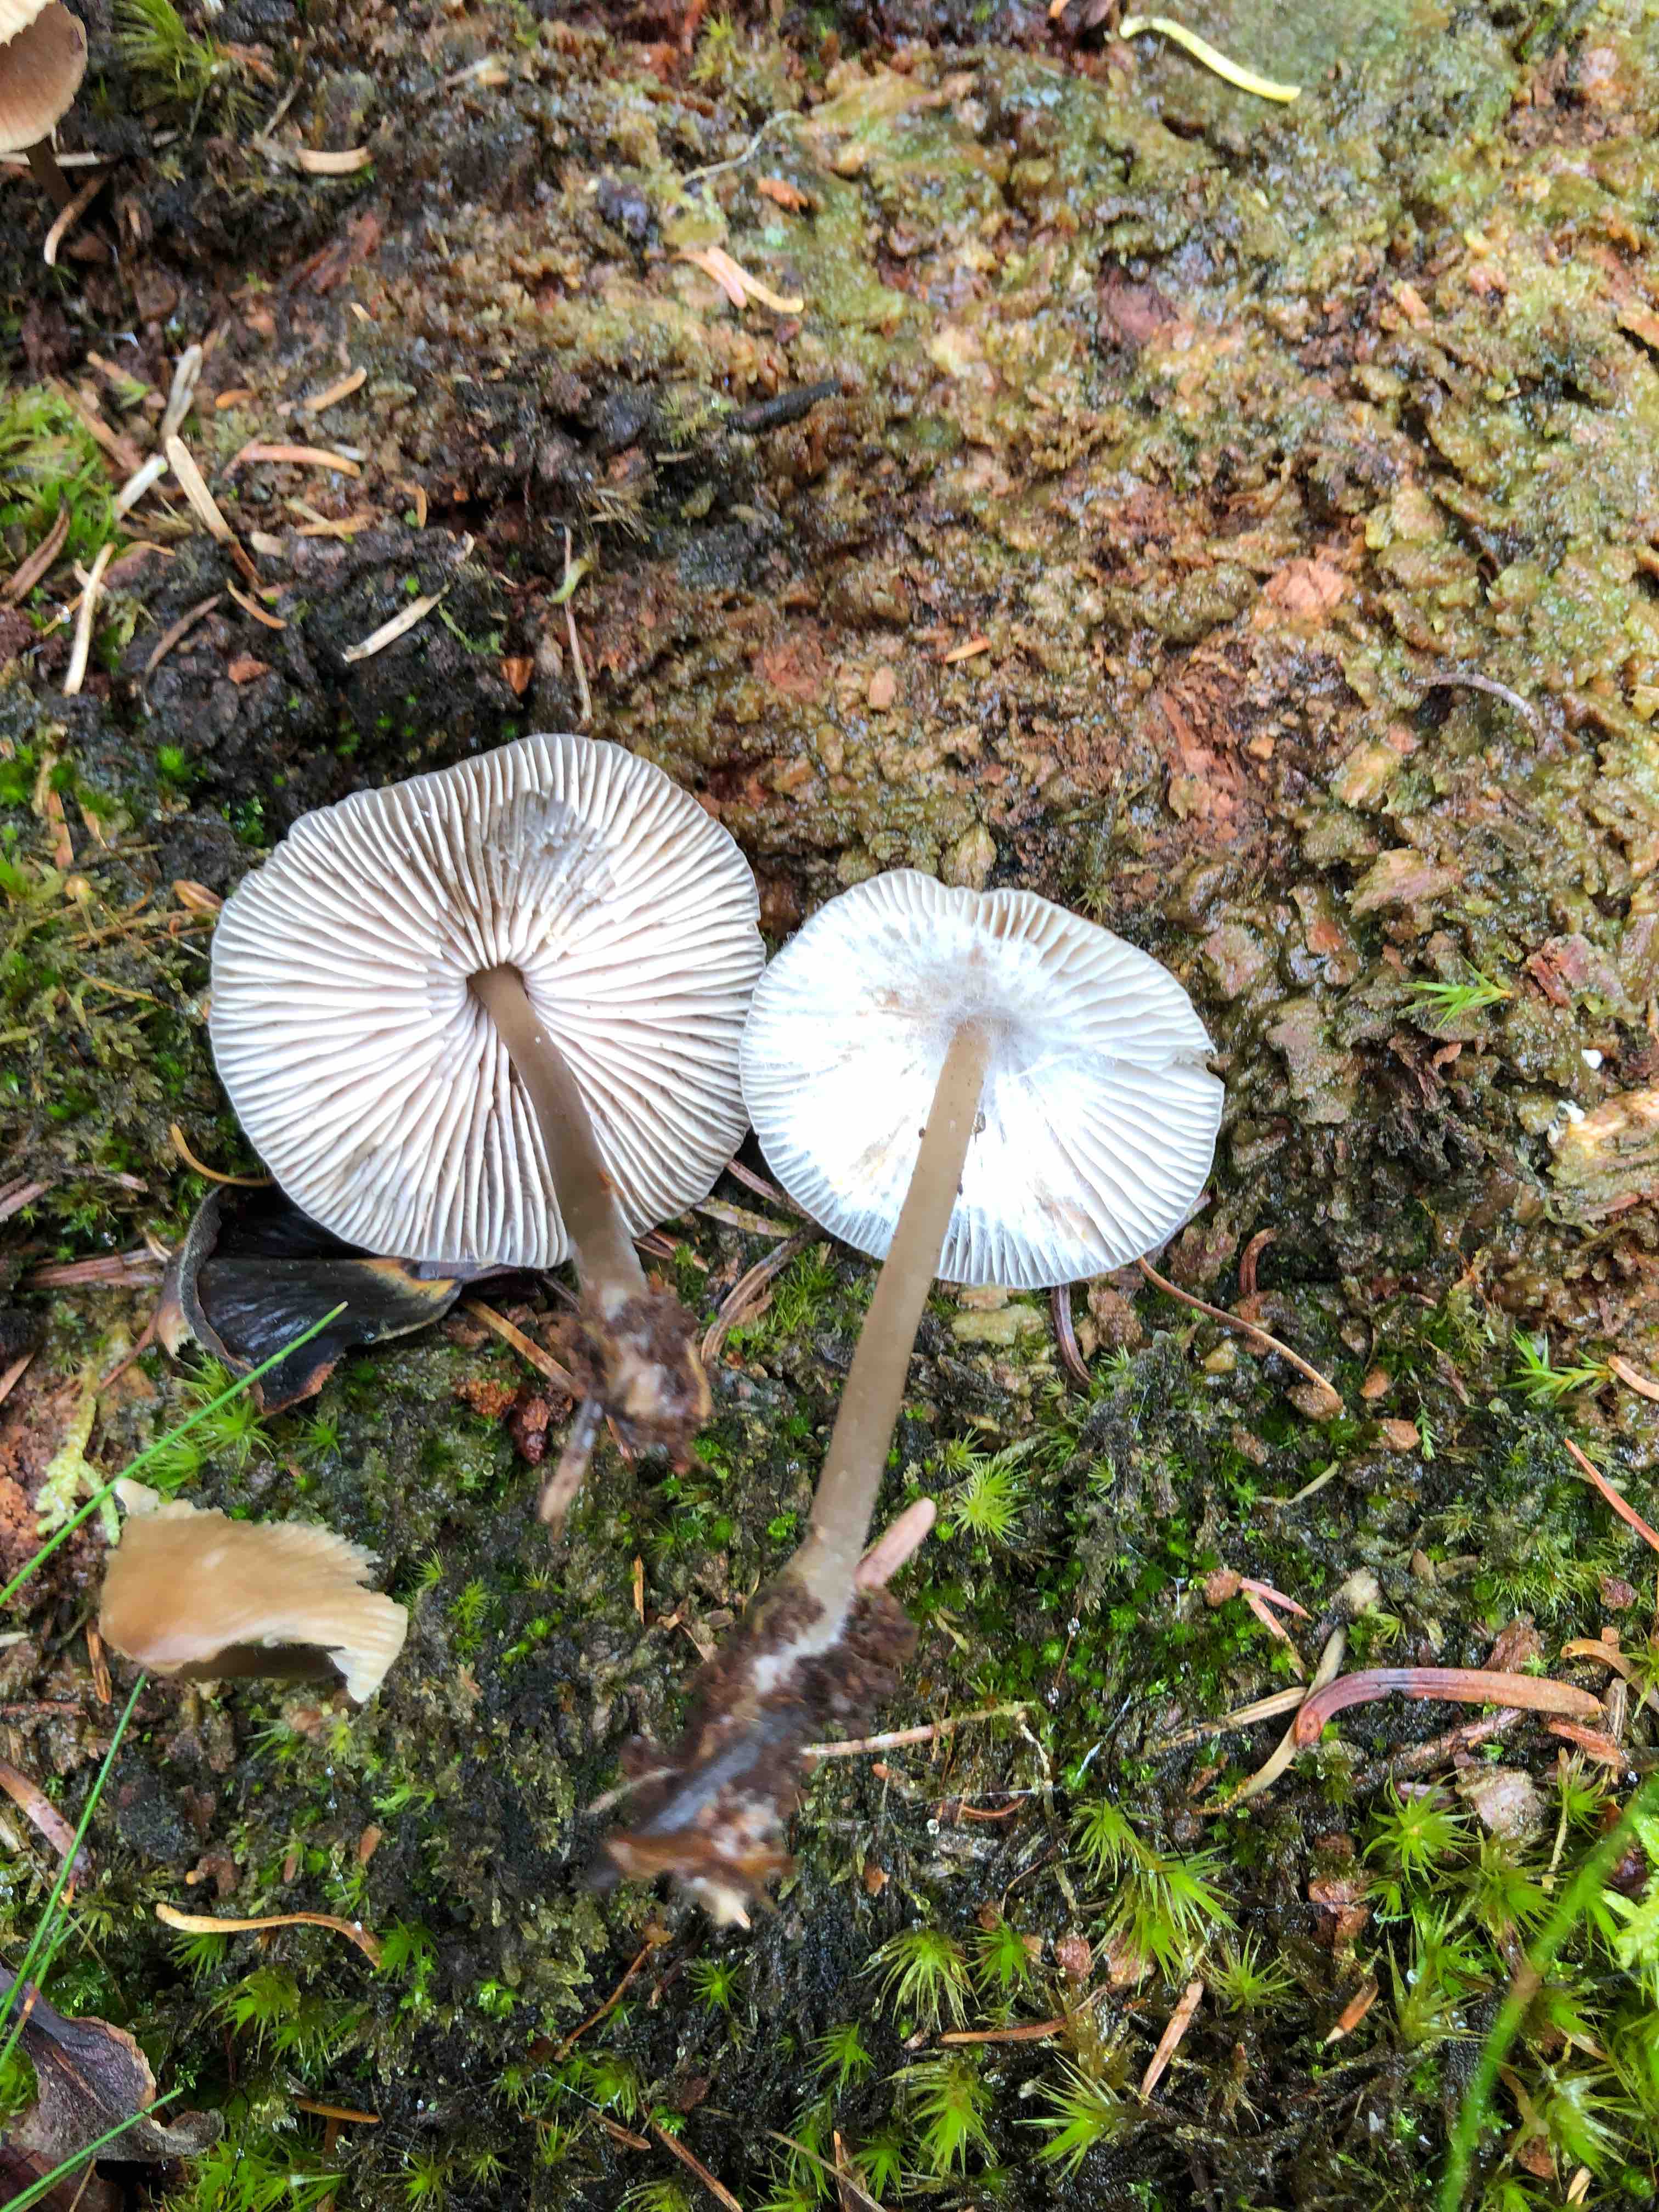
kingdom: Fungi
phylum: Basidiomycota
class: Agaricomycetes
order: Agaricales
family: Mycenaceae
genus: Mycena
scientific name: Mycena
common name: huesvamp
